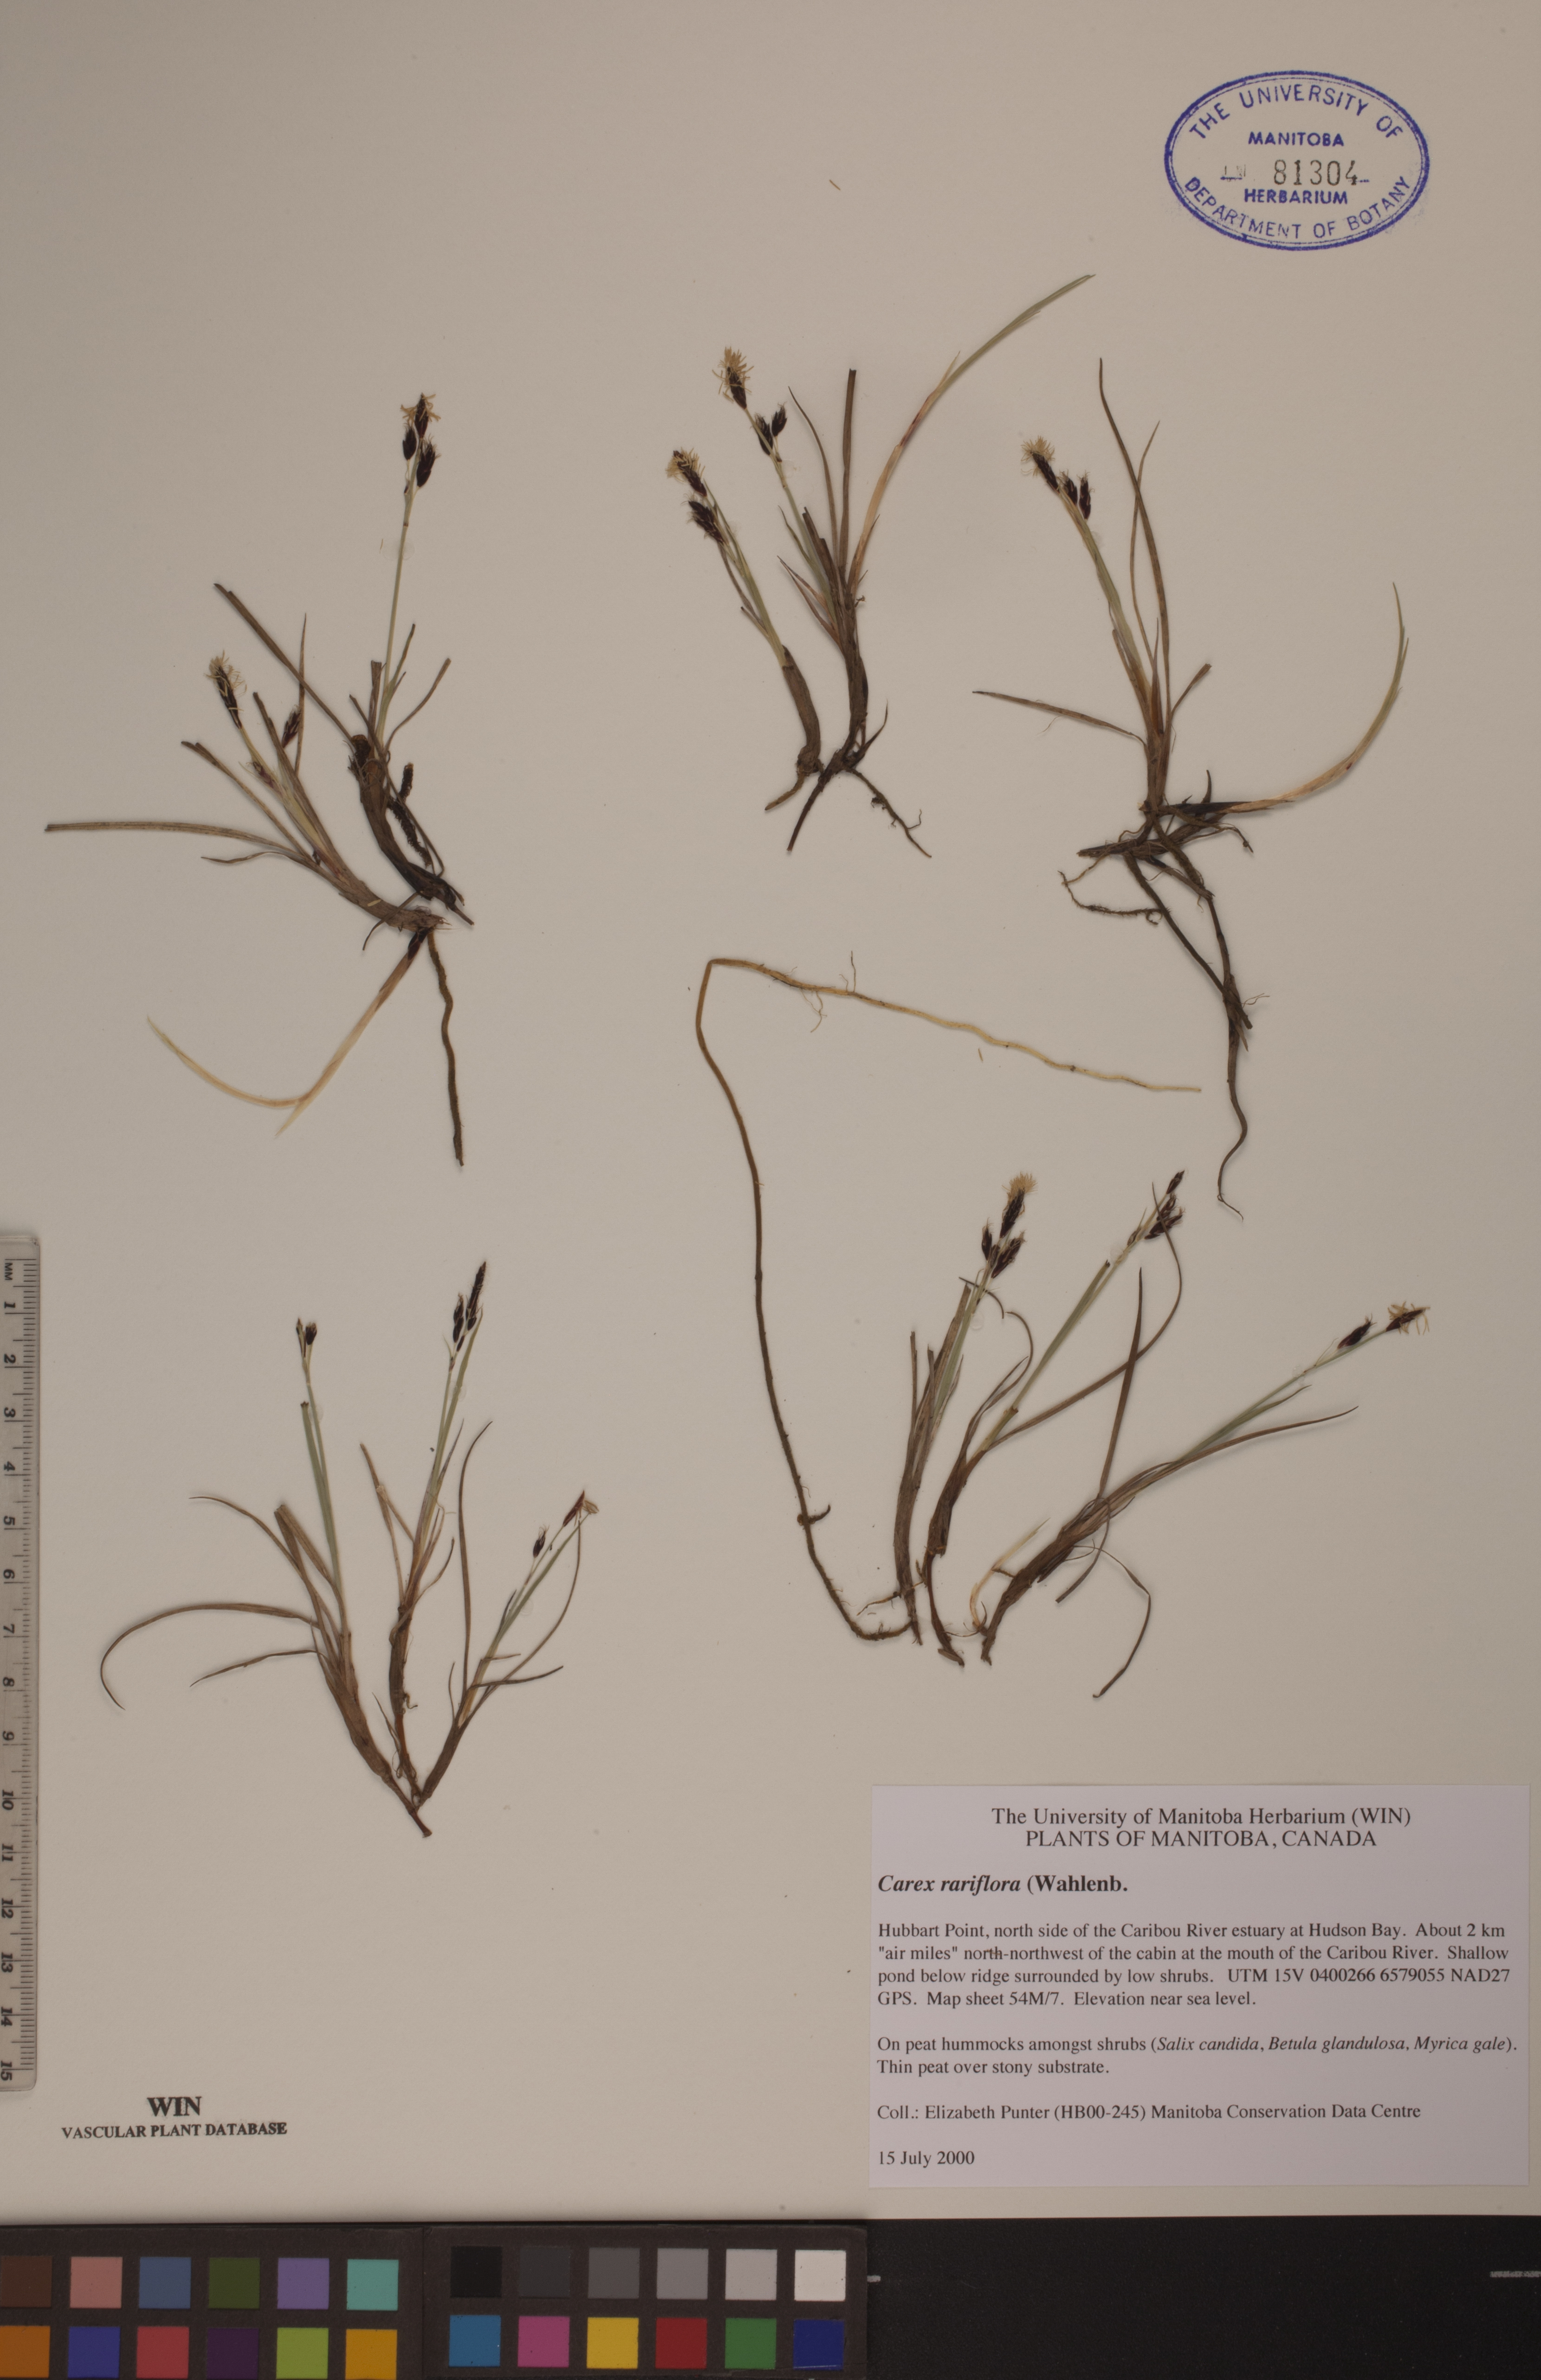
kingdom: Plantae
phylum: Tracheophyta
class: Liliopsida
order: Poales
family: Cyperaceae
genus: Carex
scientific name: Carex rariflora
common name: Loose-flowered alpine sedge
